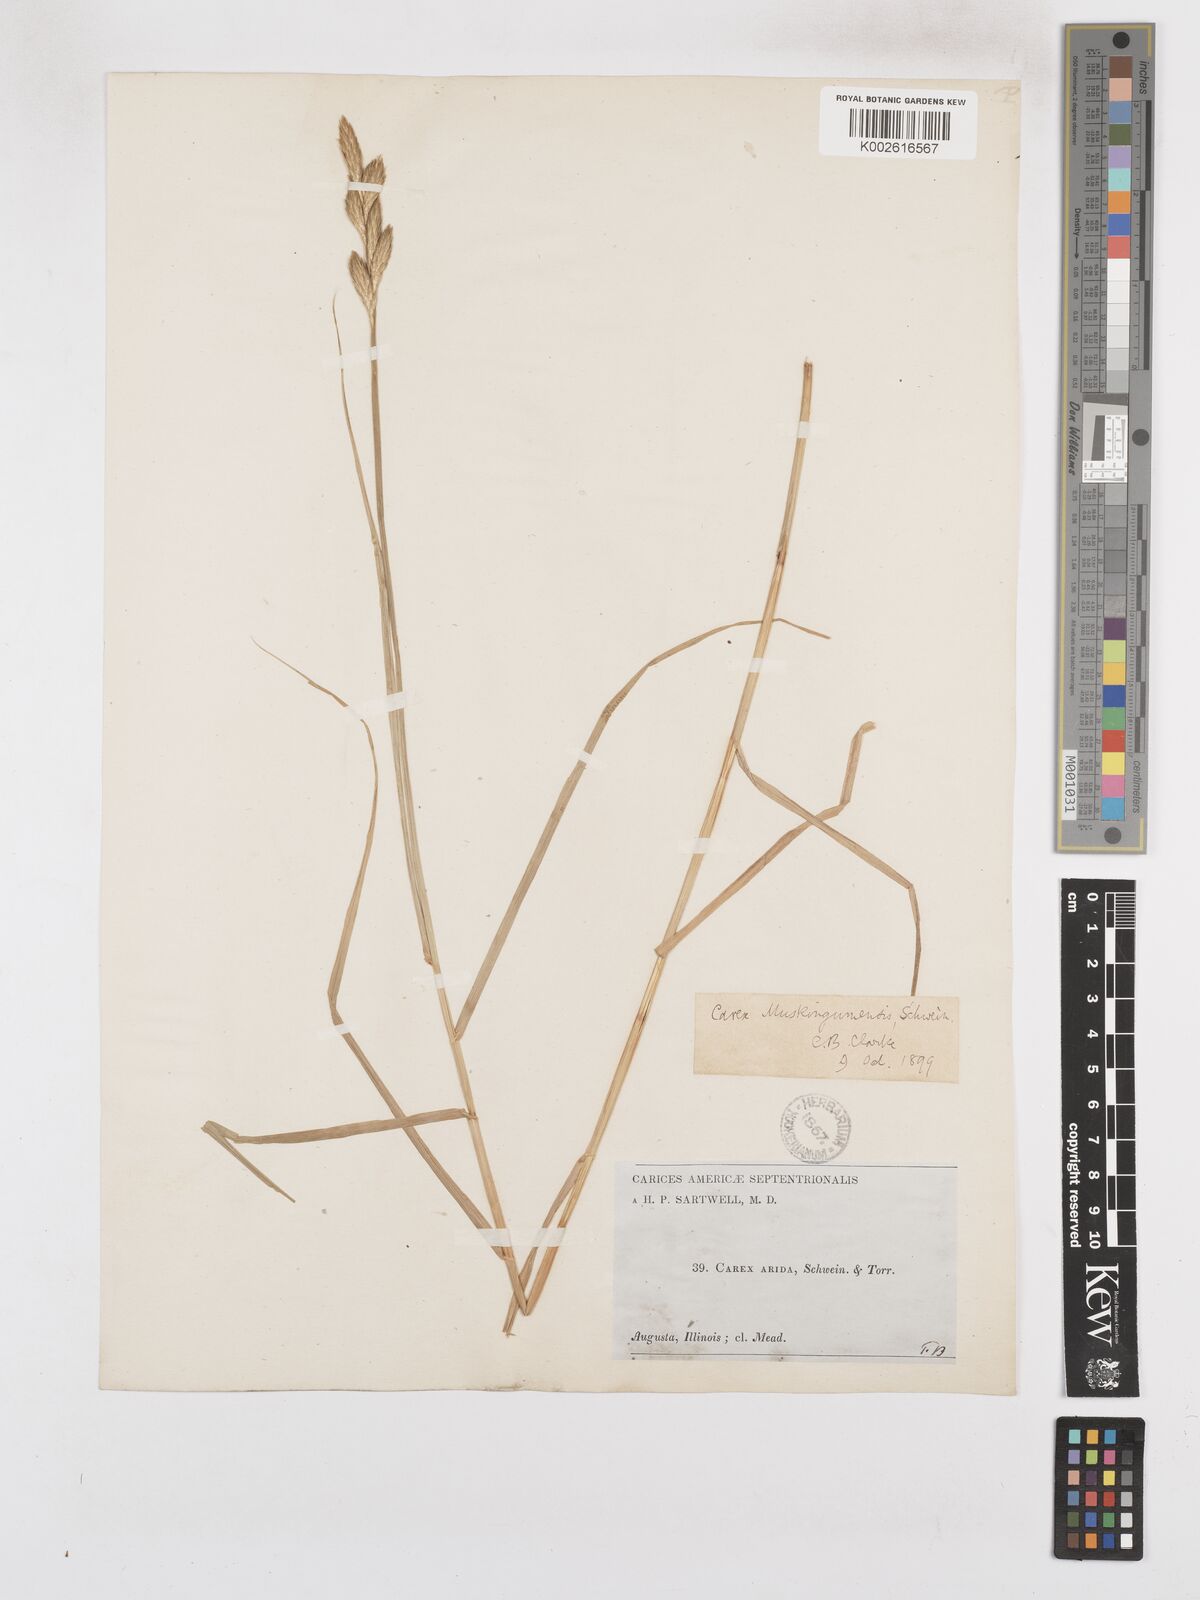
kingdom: Plantae
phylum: Tracheophyta
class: Liliopsida
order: Poales
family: Cyperaceae
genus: Carex
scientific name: Carex muskingumensis
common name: Muskingum sedge
